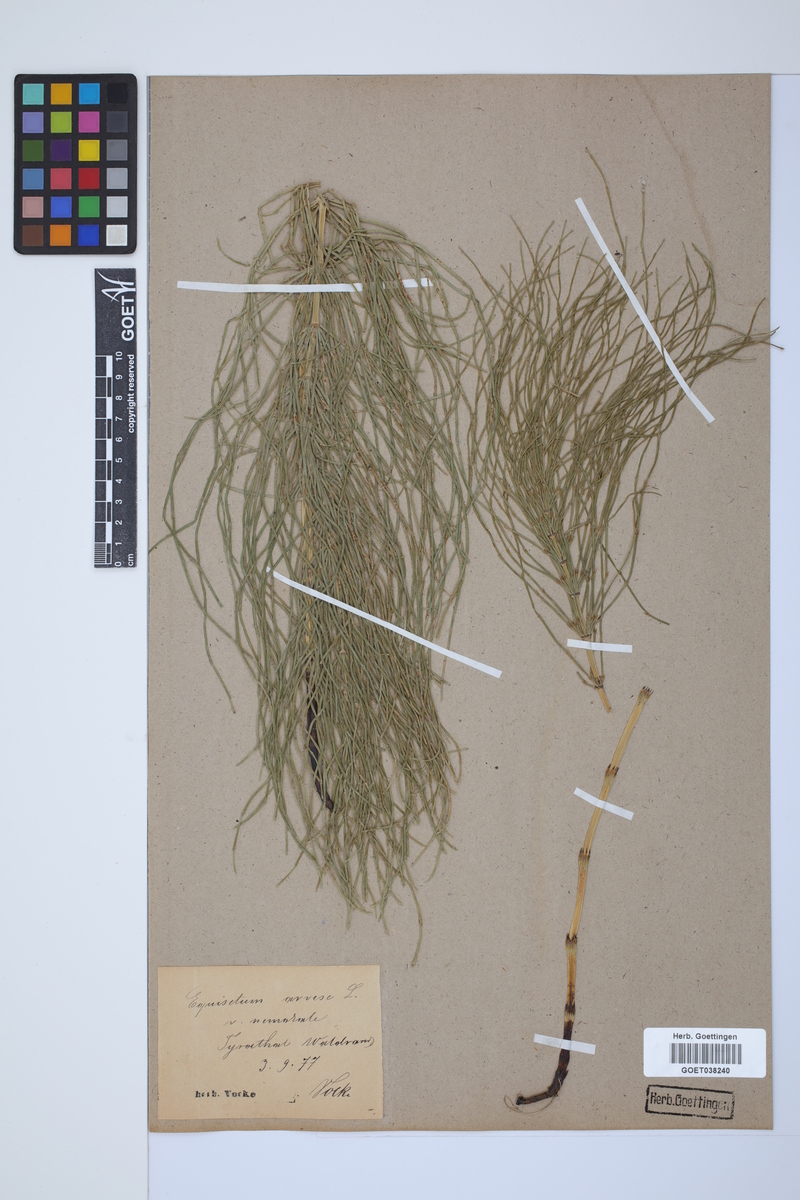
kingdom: Plantae
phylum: Tracheophyta
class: Polypodiopsida
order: Equisetales
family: Equisetaceae
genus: Equisetum
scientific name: Equisetum arvense
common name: Field horsetail
